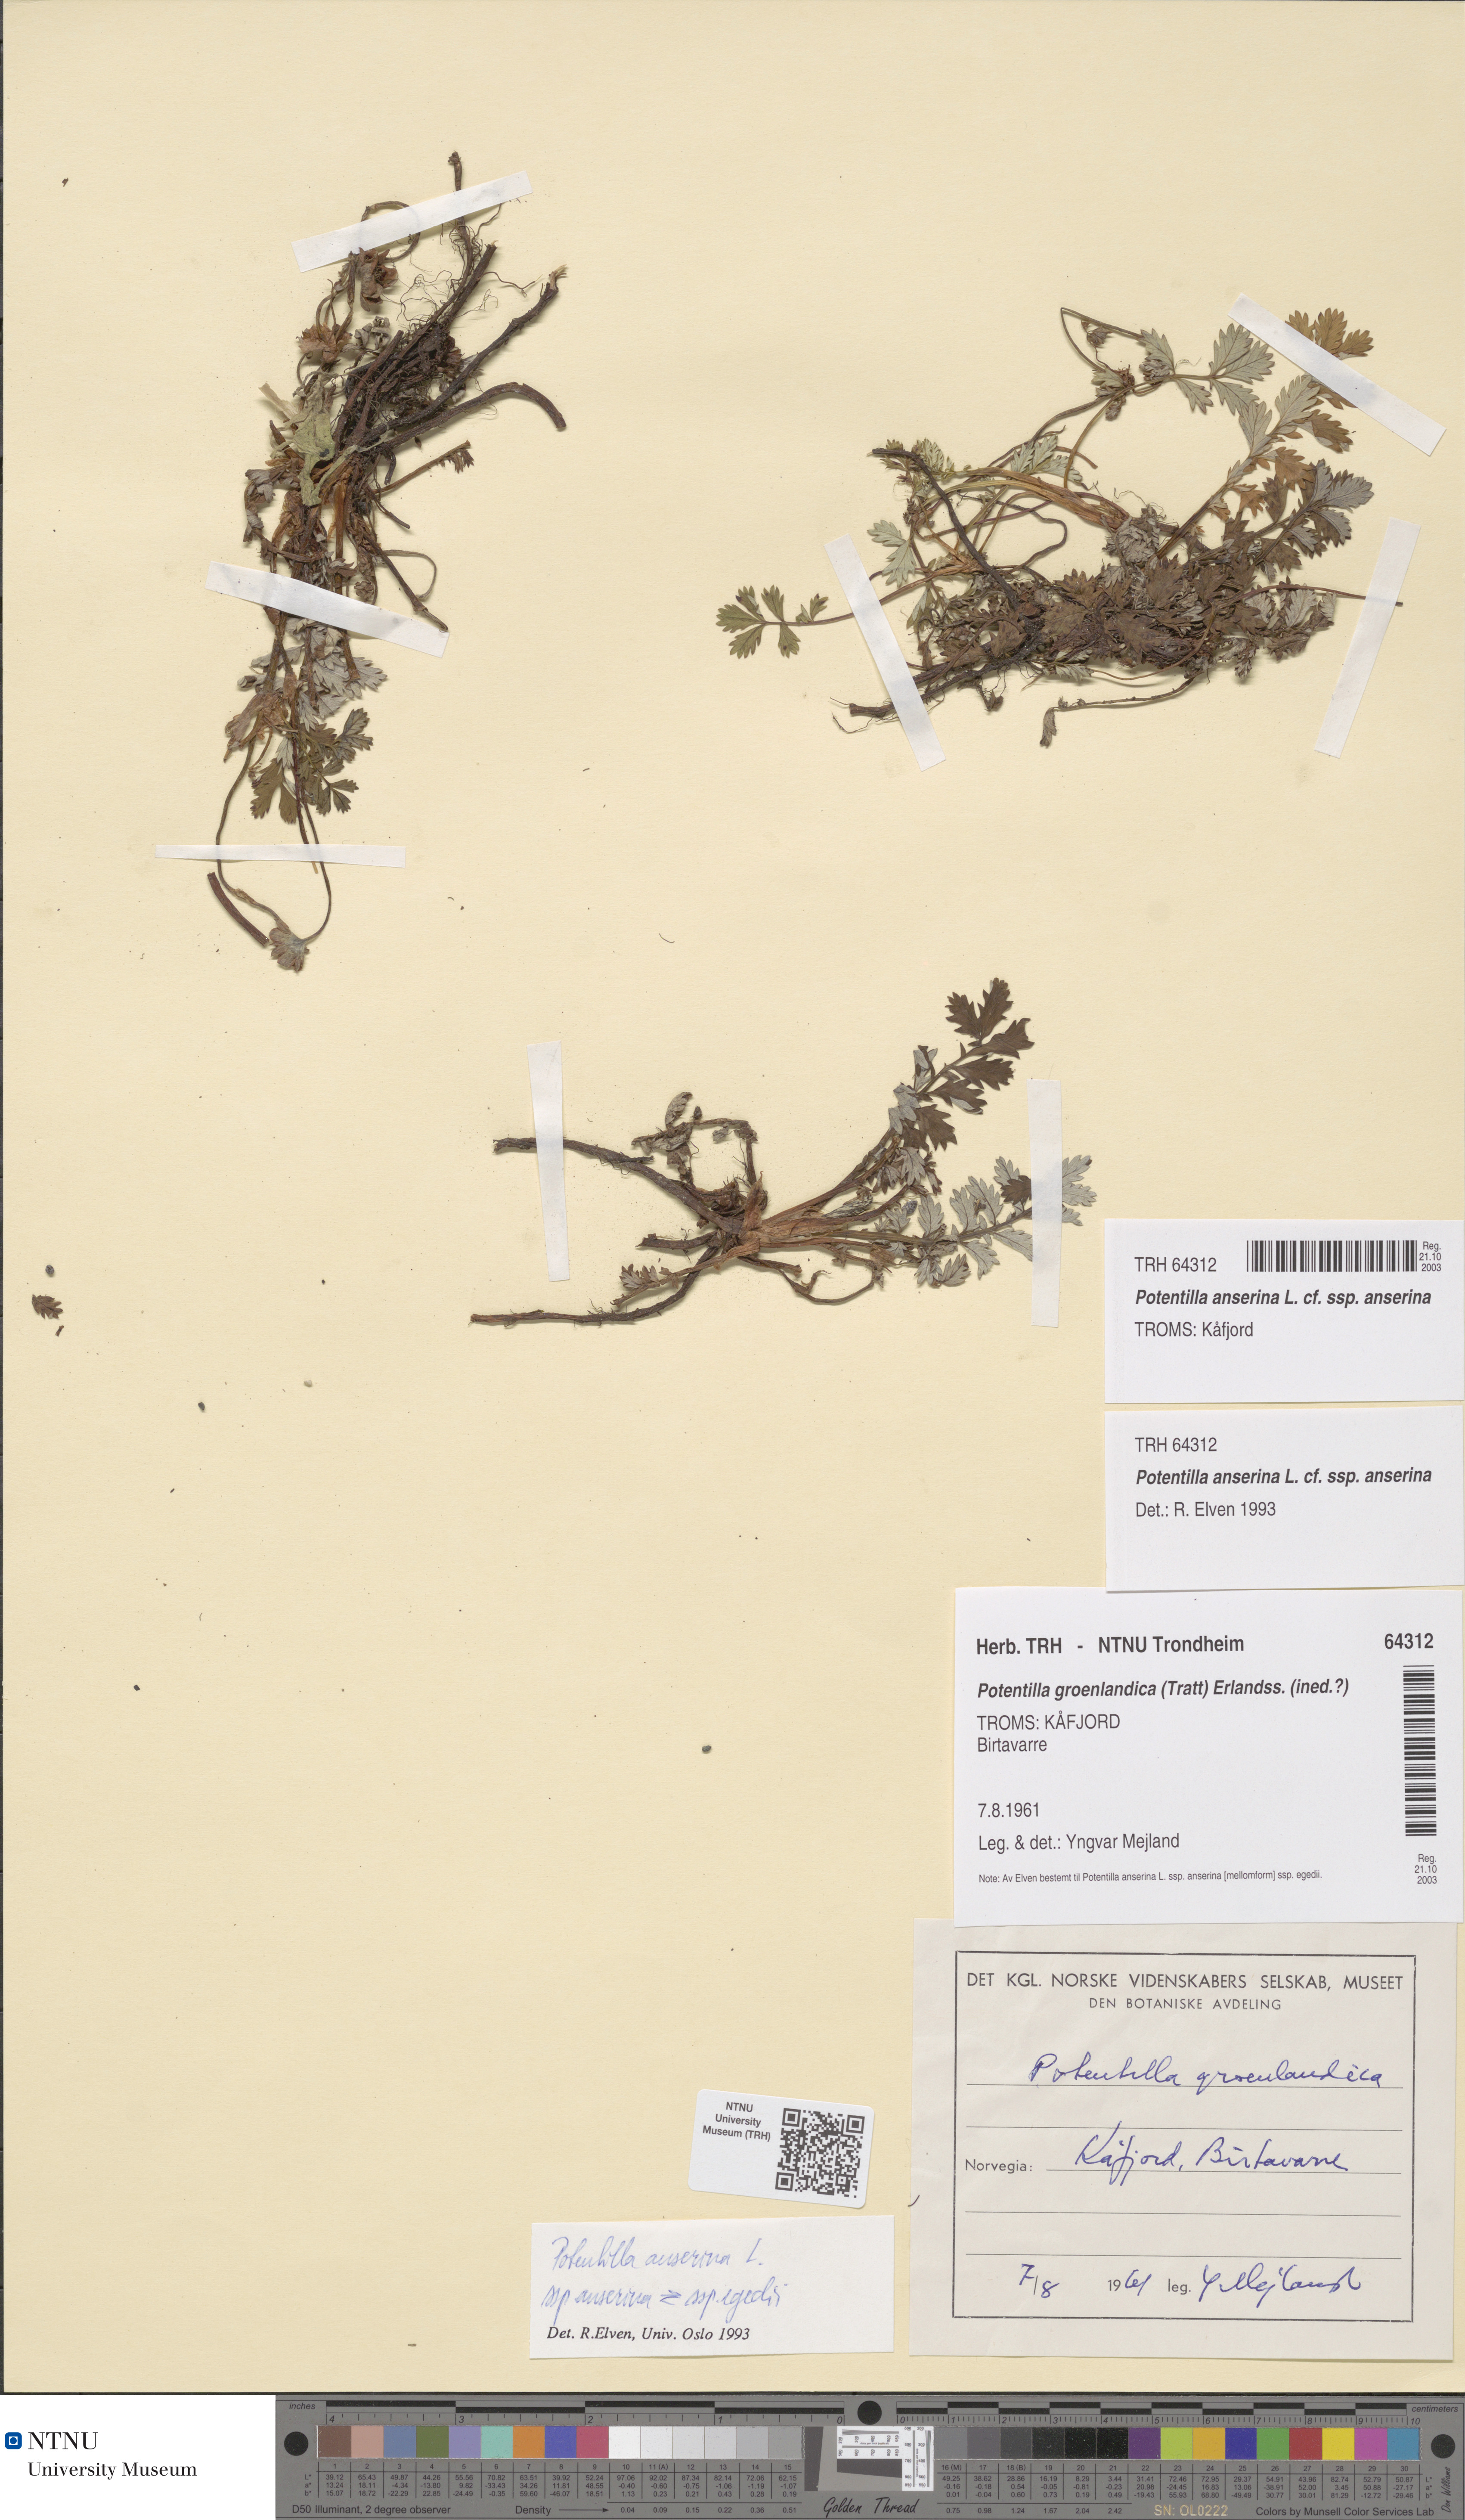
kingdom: Plantae
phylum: Tracheophyta
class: Magnoliopsida
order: Rosales
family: Rosaceae
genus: Argentina
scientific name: Argentina anserina
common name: Common silverweed
